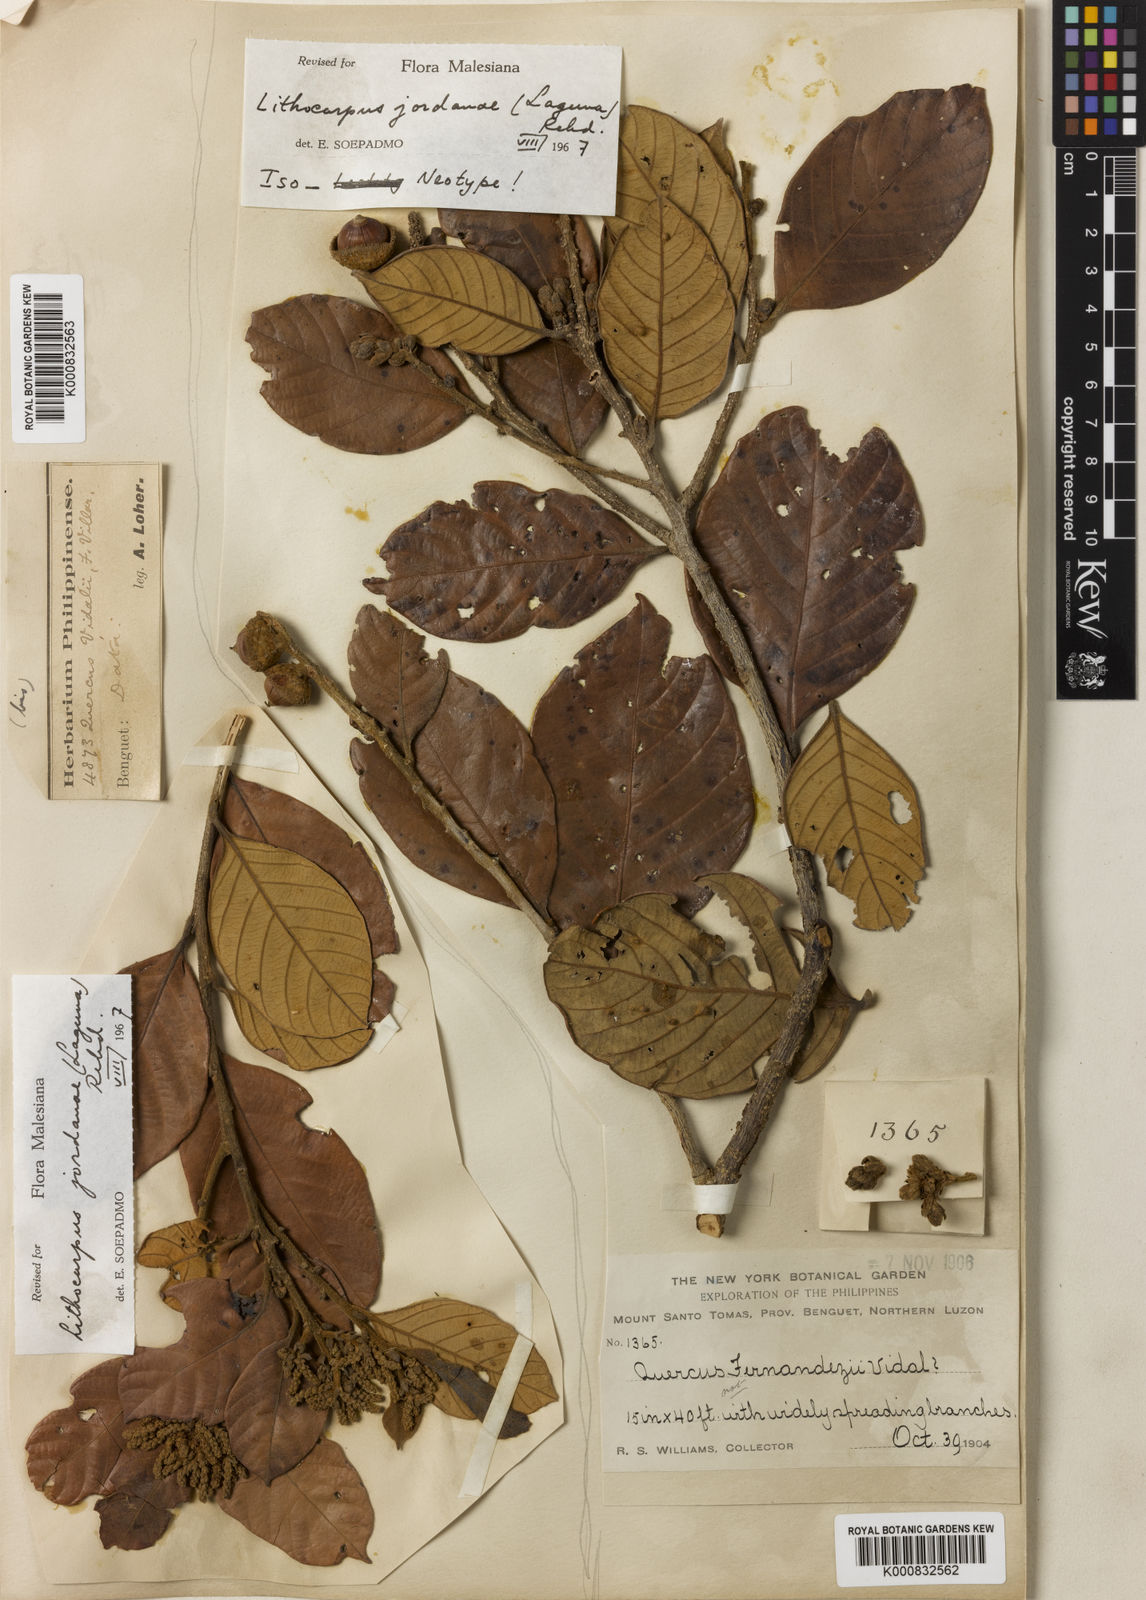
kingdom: Plantae
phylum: Tracheophyta
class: Magnoliopsida
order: Fagales
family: Fagaceae
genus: Lithocarpus
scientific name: Lithocarpus jordanae
